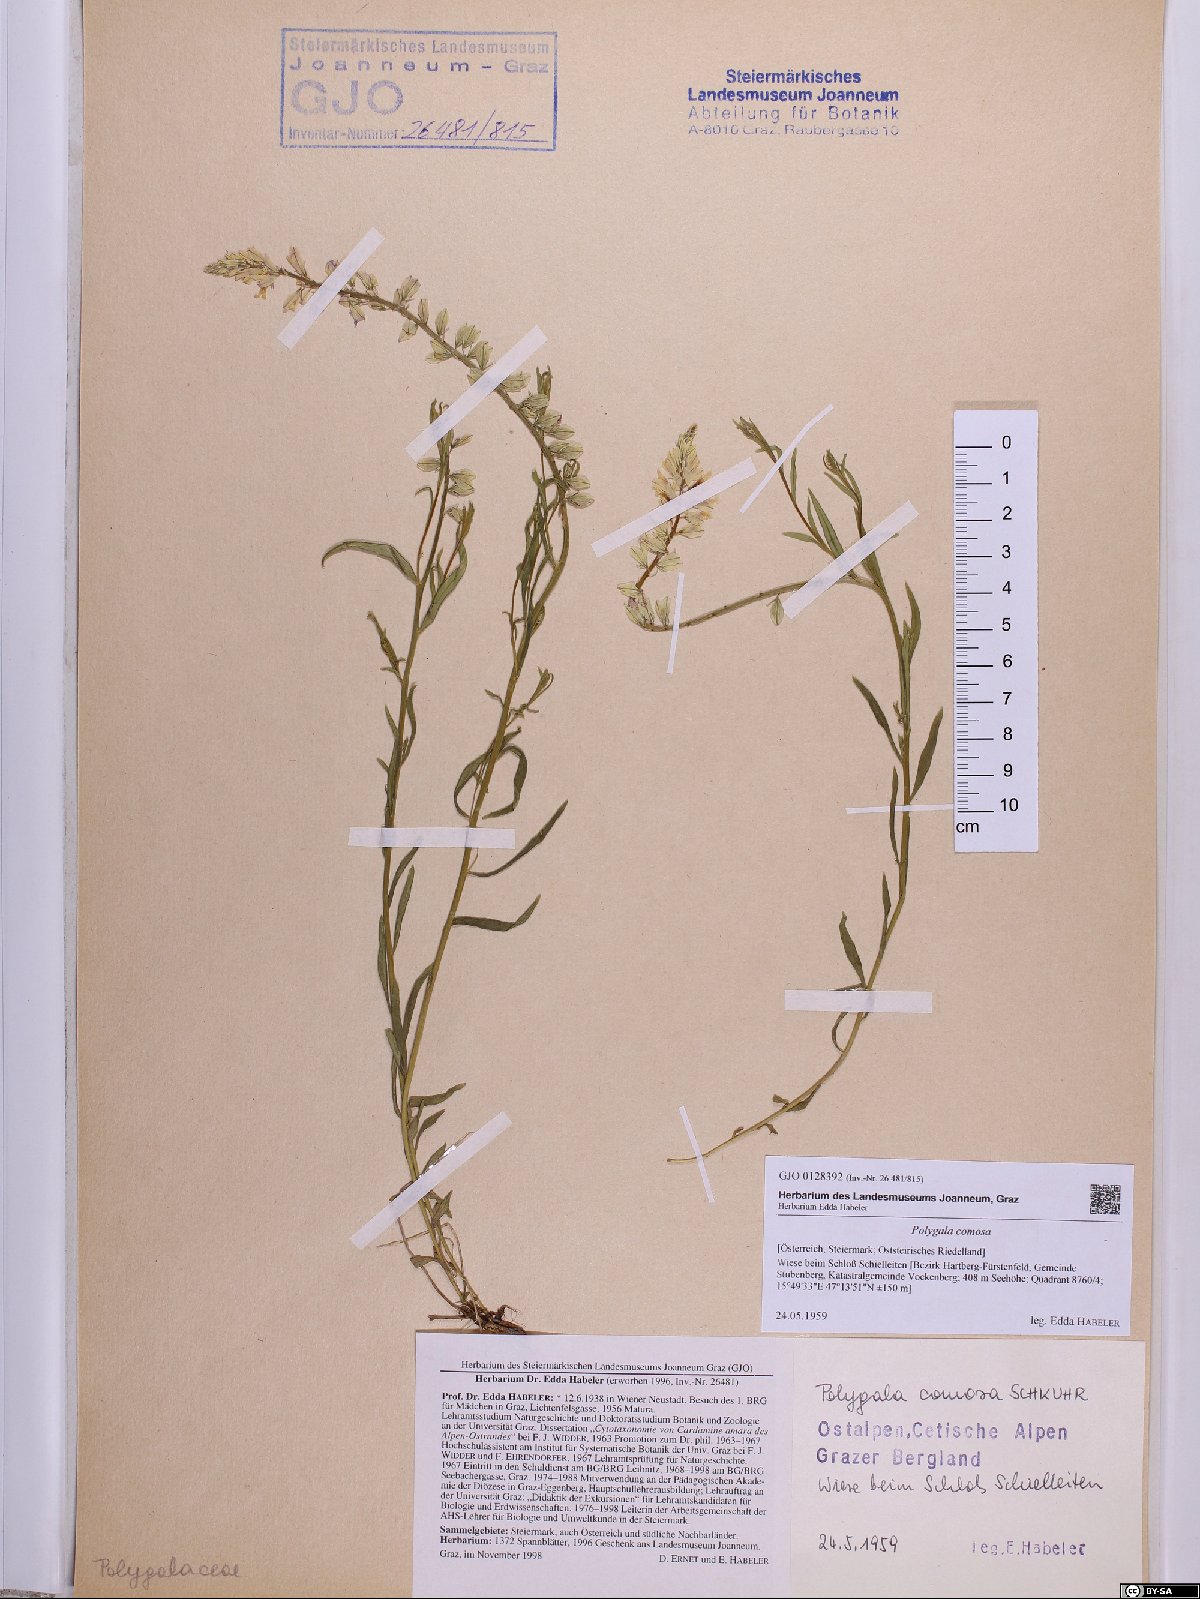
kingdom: Plantae
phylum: Tracheophyta
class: Magnoliopsida
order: Fabales
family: Polygalaceae
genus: Polygala
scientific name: Polygala comosa
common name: Tufted milkwort
